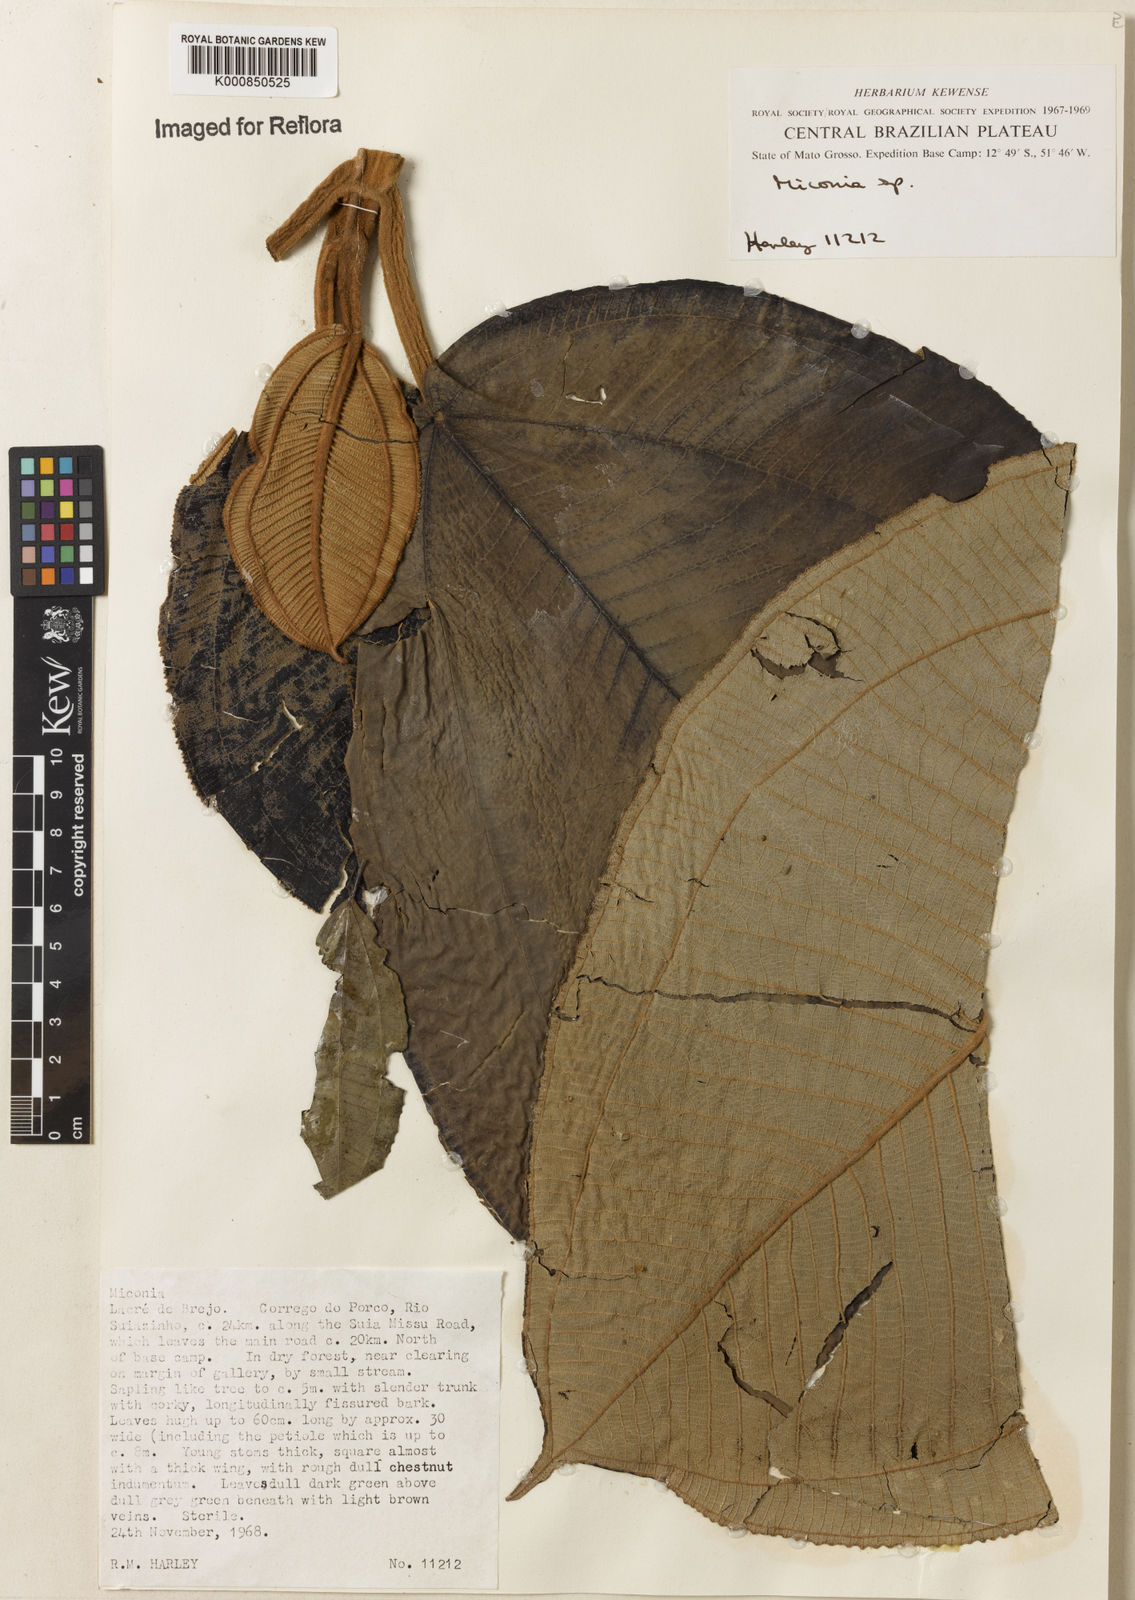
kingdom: Plantae
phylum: Tracheophyta
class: Magnoliopsida
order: Myrtales
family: Melastomataceae
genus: Miconia
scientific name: Miconia
